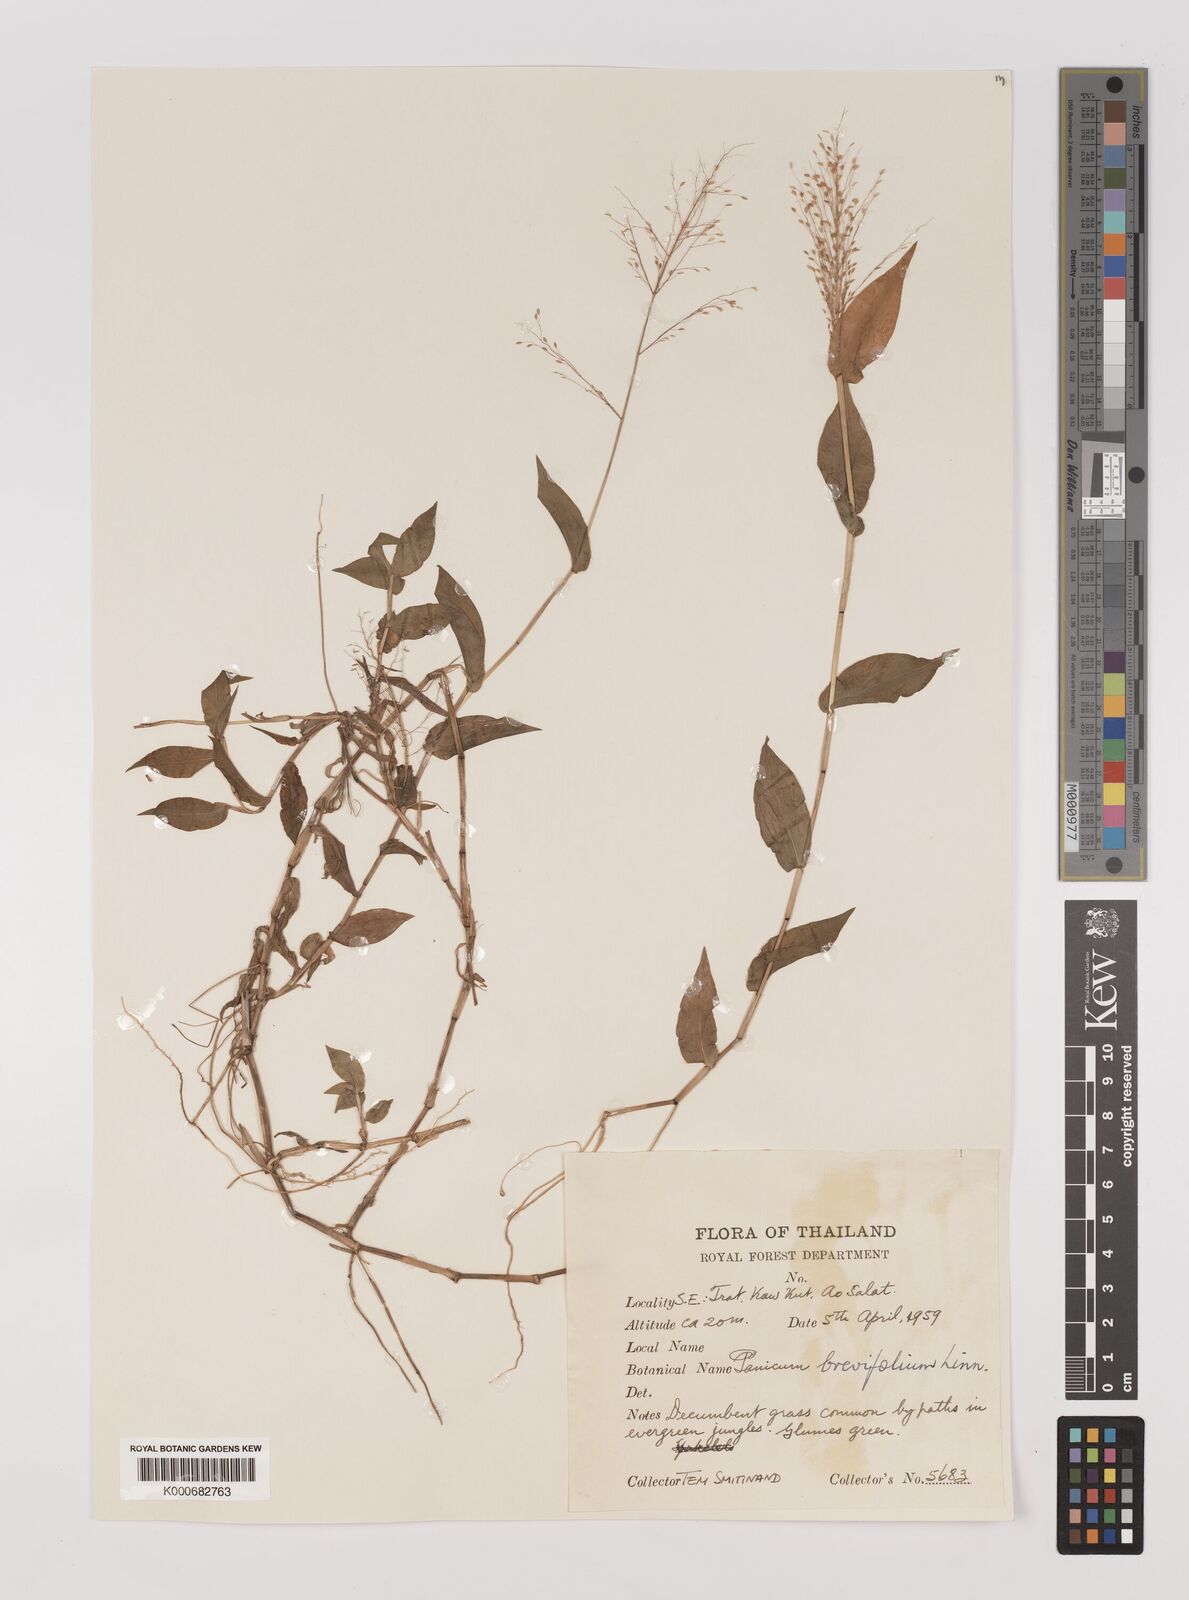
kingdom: Plantae
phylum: Tracheophyta
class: Liliopsida
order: Poales
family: Poaceae
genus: Panicum
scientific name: Panicum brevifolium
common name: Shortleaf panic grass
